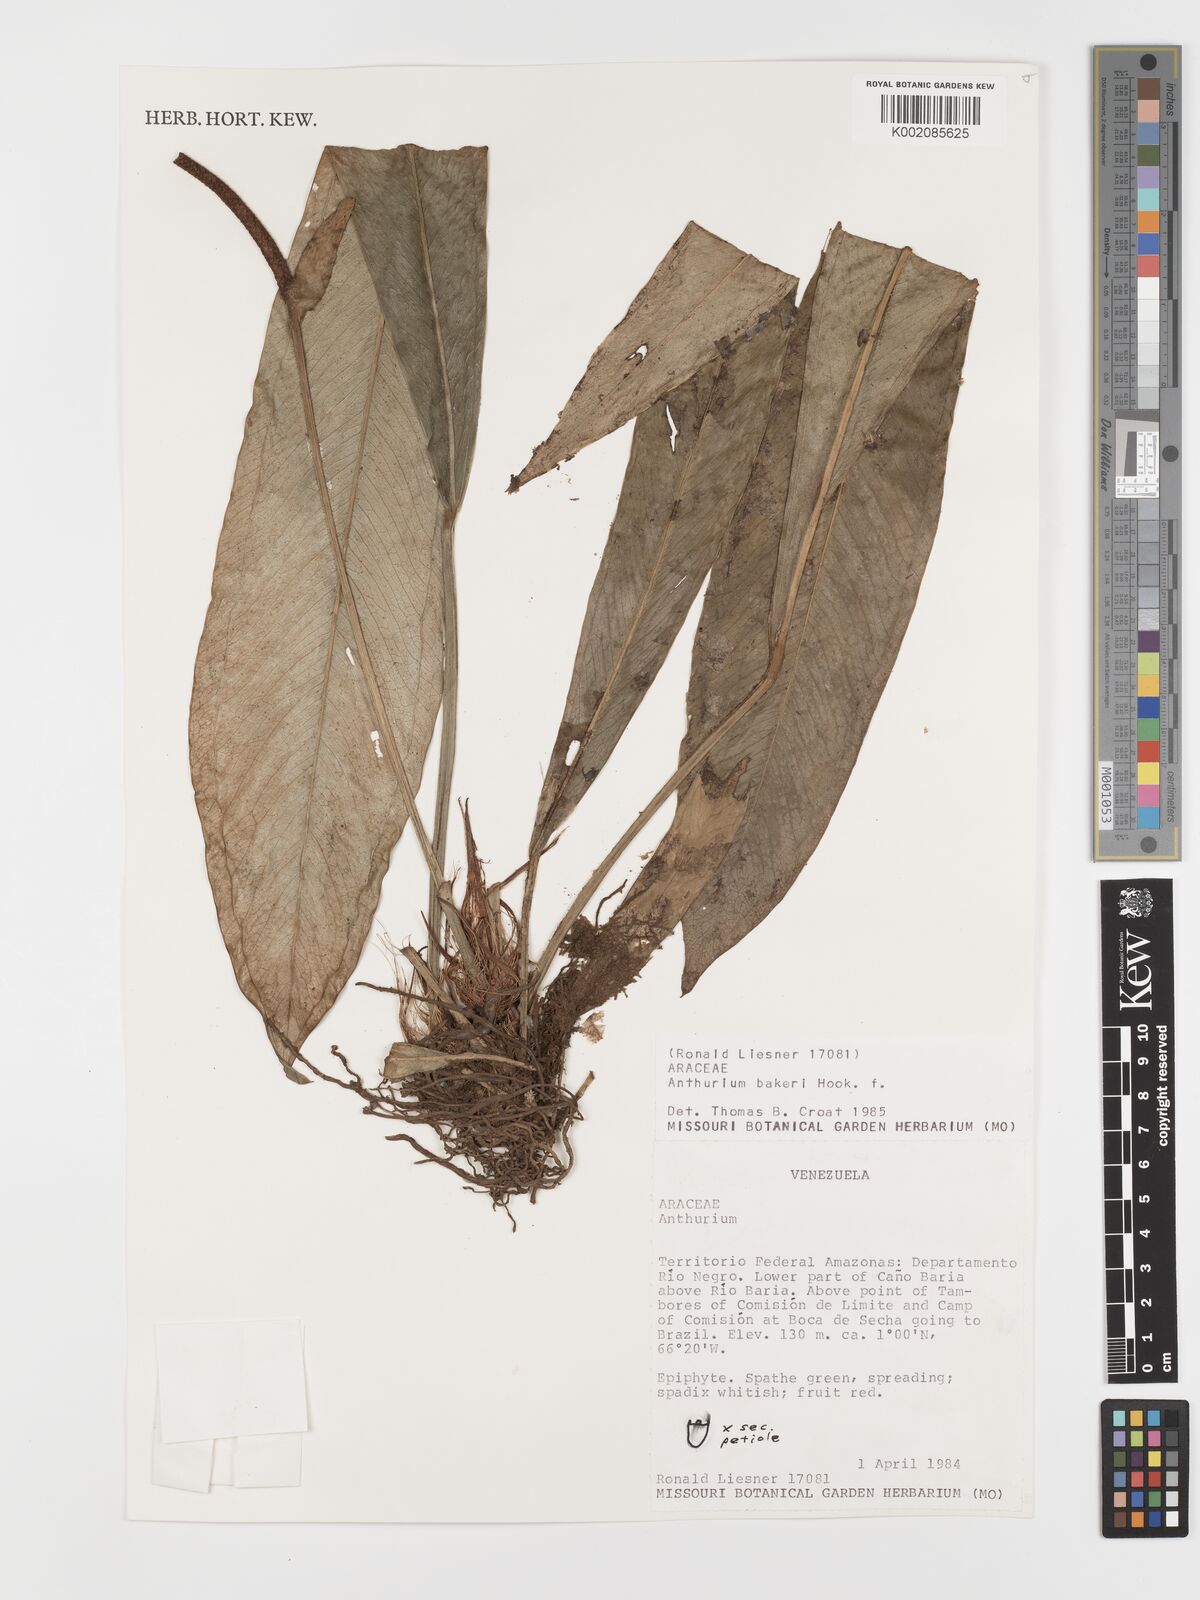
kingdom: Plantae
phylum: Tracheophyta
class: Liliopsida
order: Alismatales
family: Araceae
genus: Anthurium
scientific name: Anthurium bakeri
